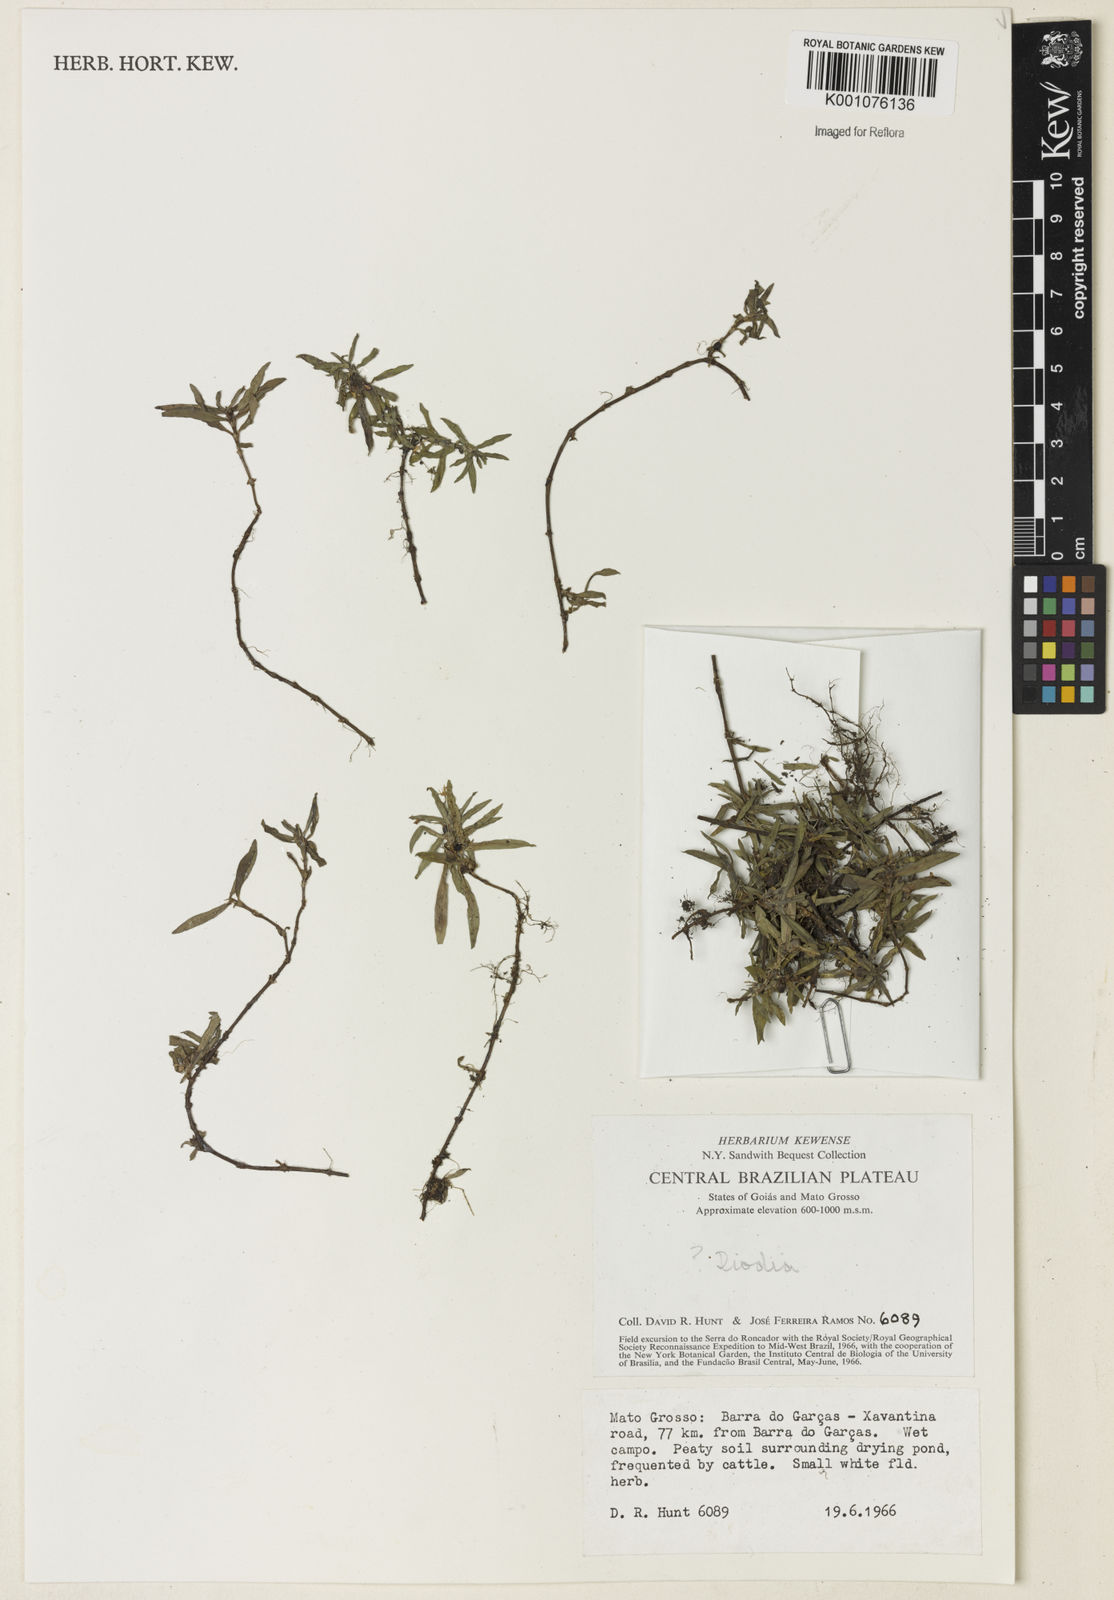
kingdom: Plantae
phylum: Tracheophyta
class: Magnoliopsida
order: Gentianales
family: Rubiaceae
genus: Hexasepalum
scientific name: Hexasepalum
